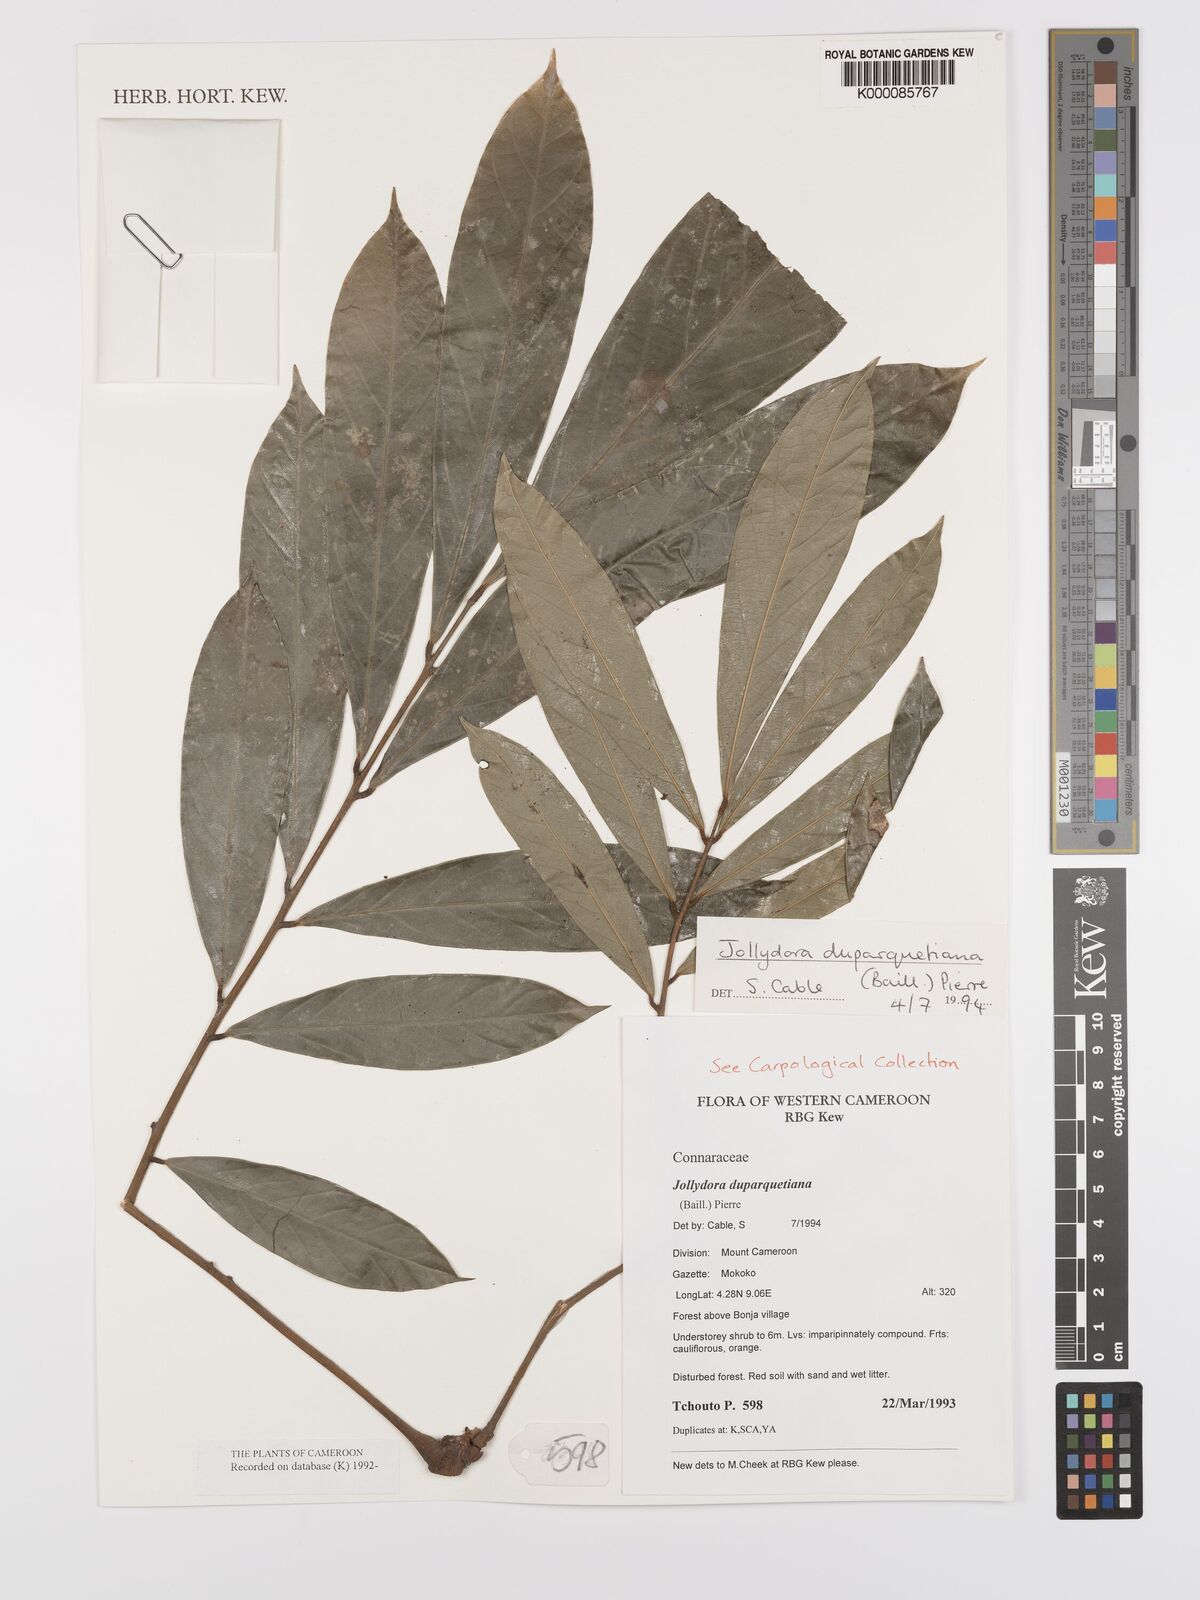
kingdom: Plantae
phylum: Tracheophyta
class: Magnoliopsida
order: Oxalidales
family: Connaraceae
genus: Jollydora
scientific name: Jollydora duparquetiana
